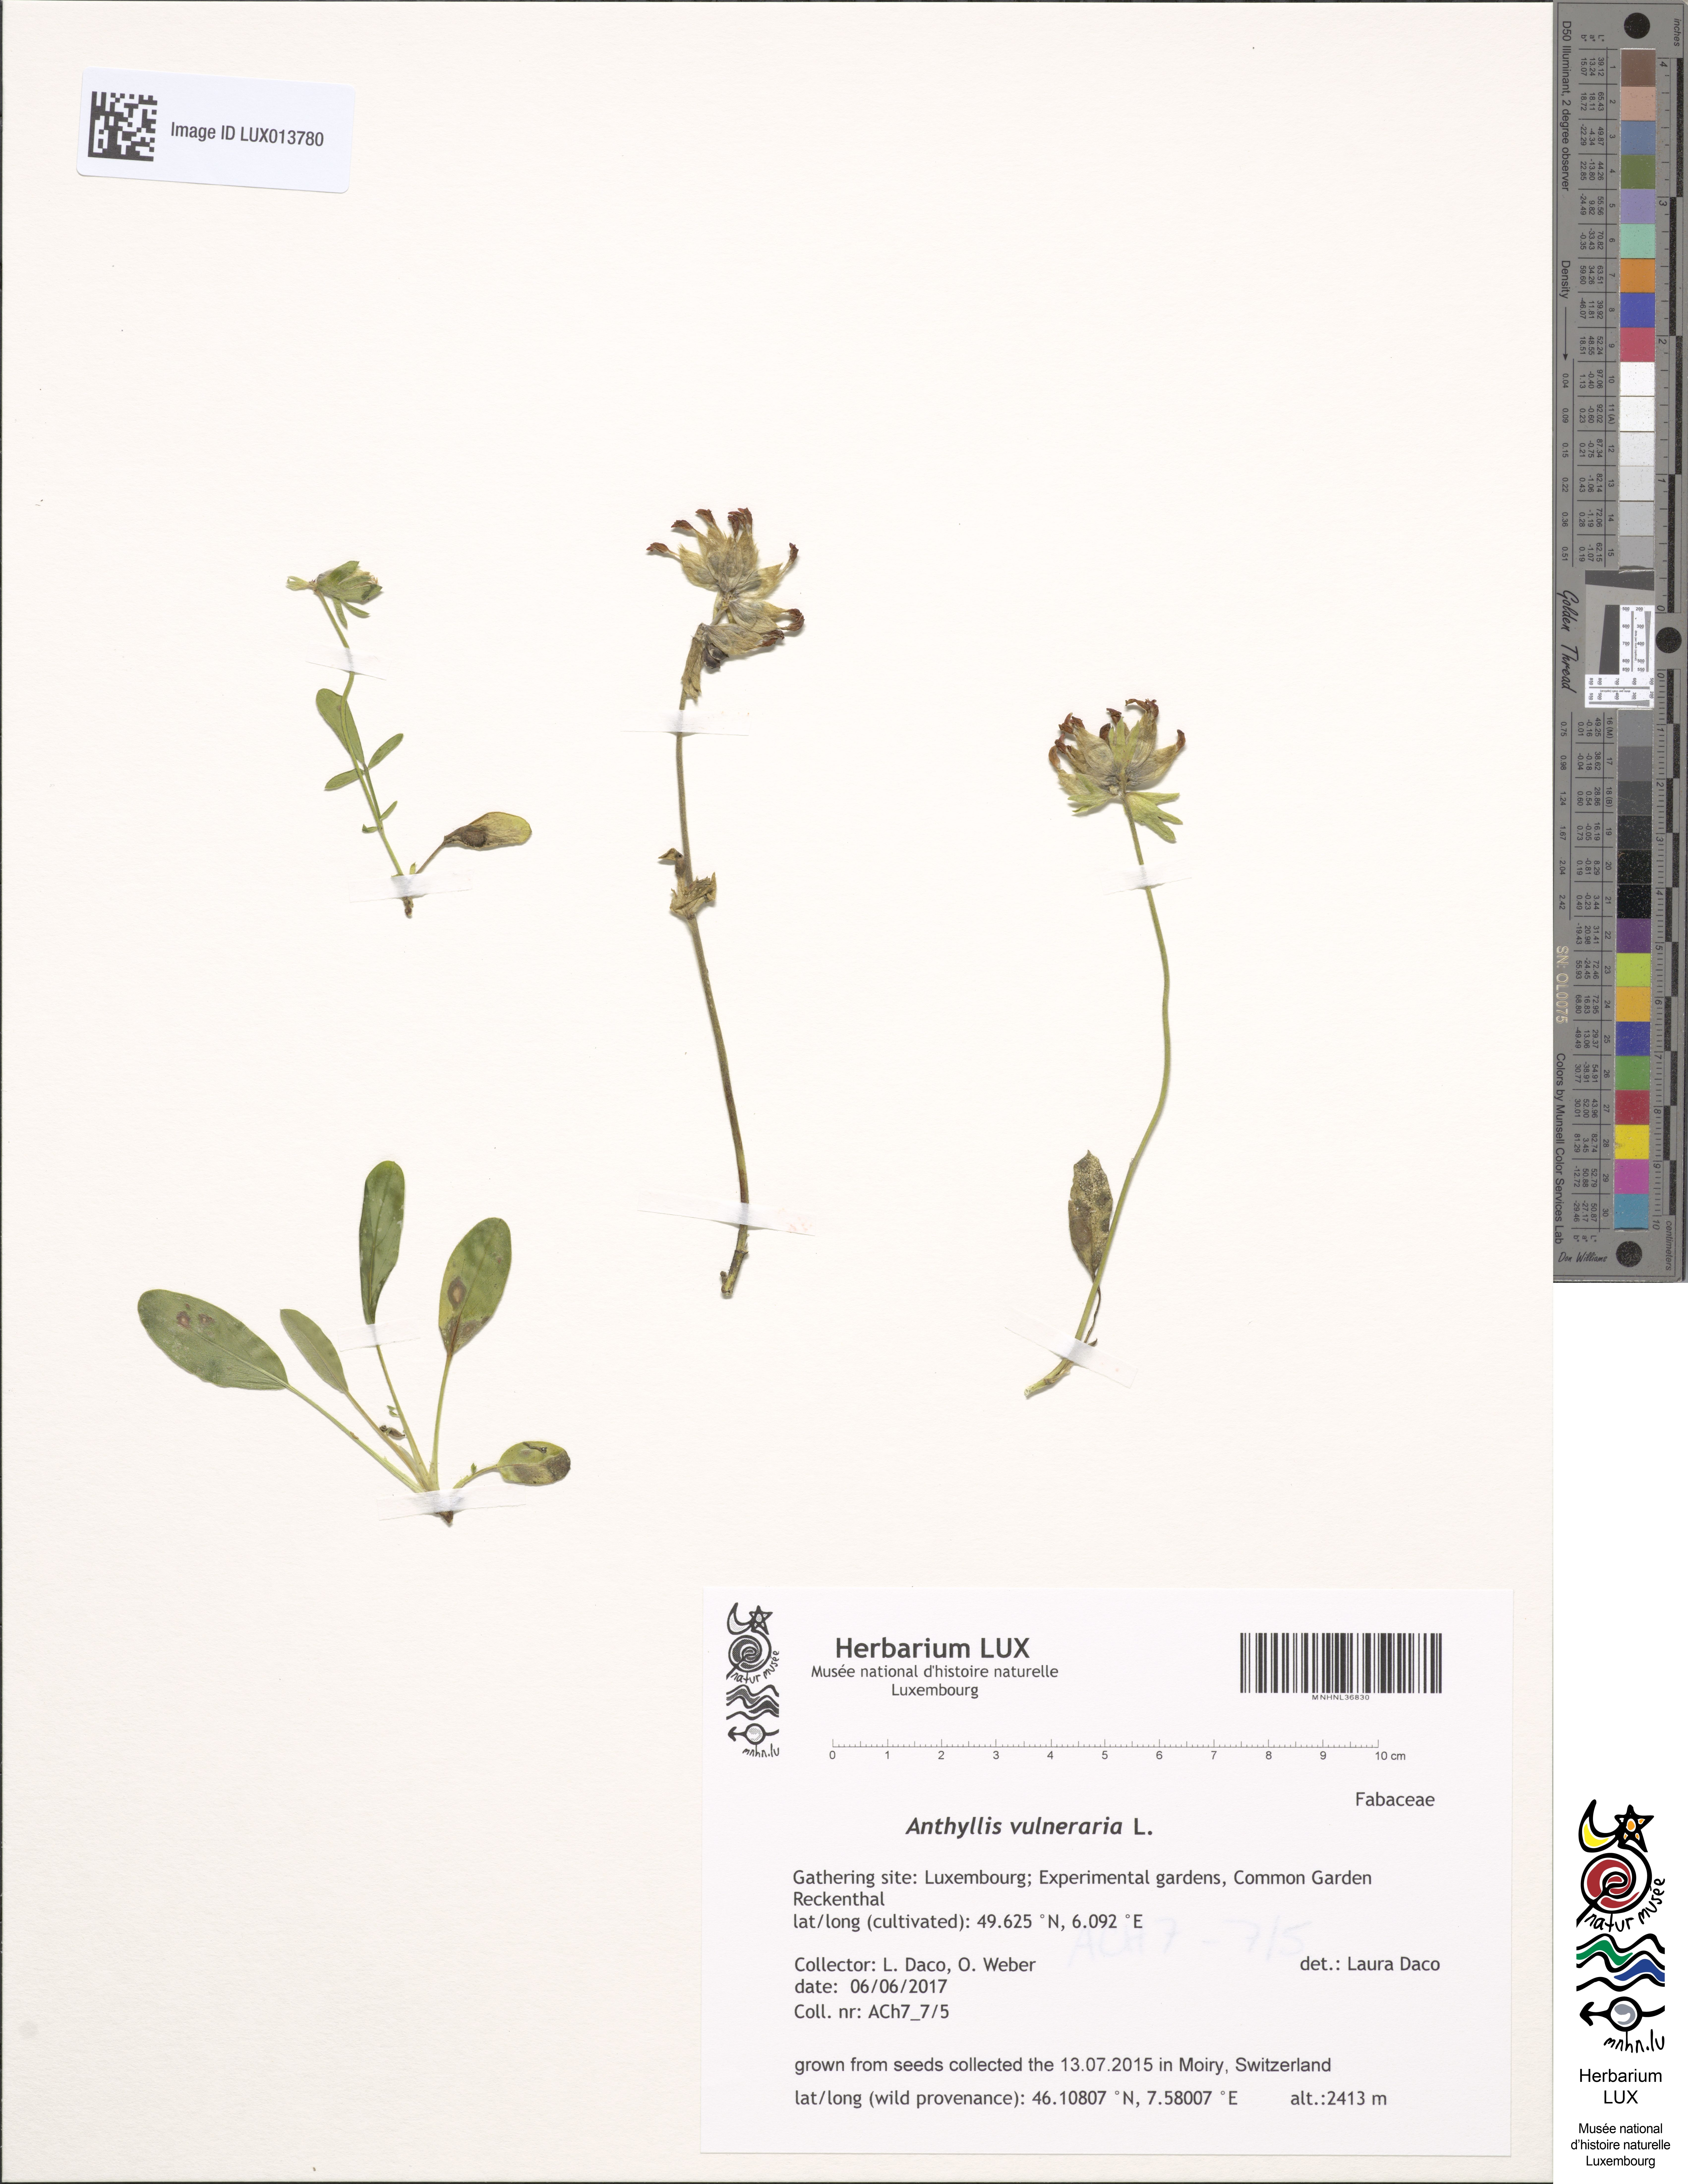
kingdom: Plantae
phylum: Tracheophyta
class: Magnoliopsida
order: Fabales
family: Fabaceae
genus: Anthyllis
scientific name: Anthyllis vulneraria
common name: Kidney vetch
